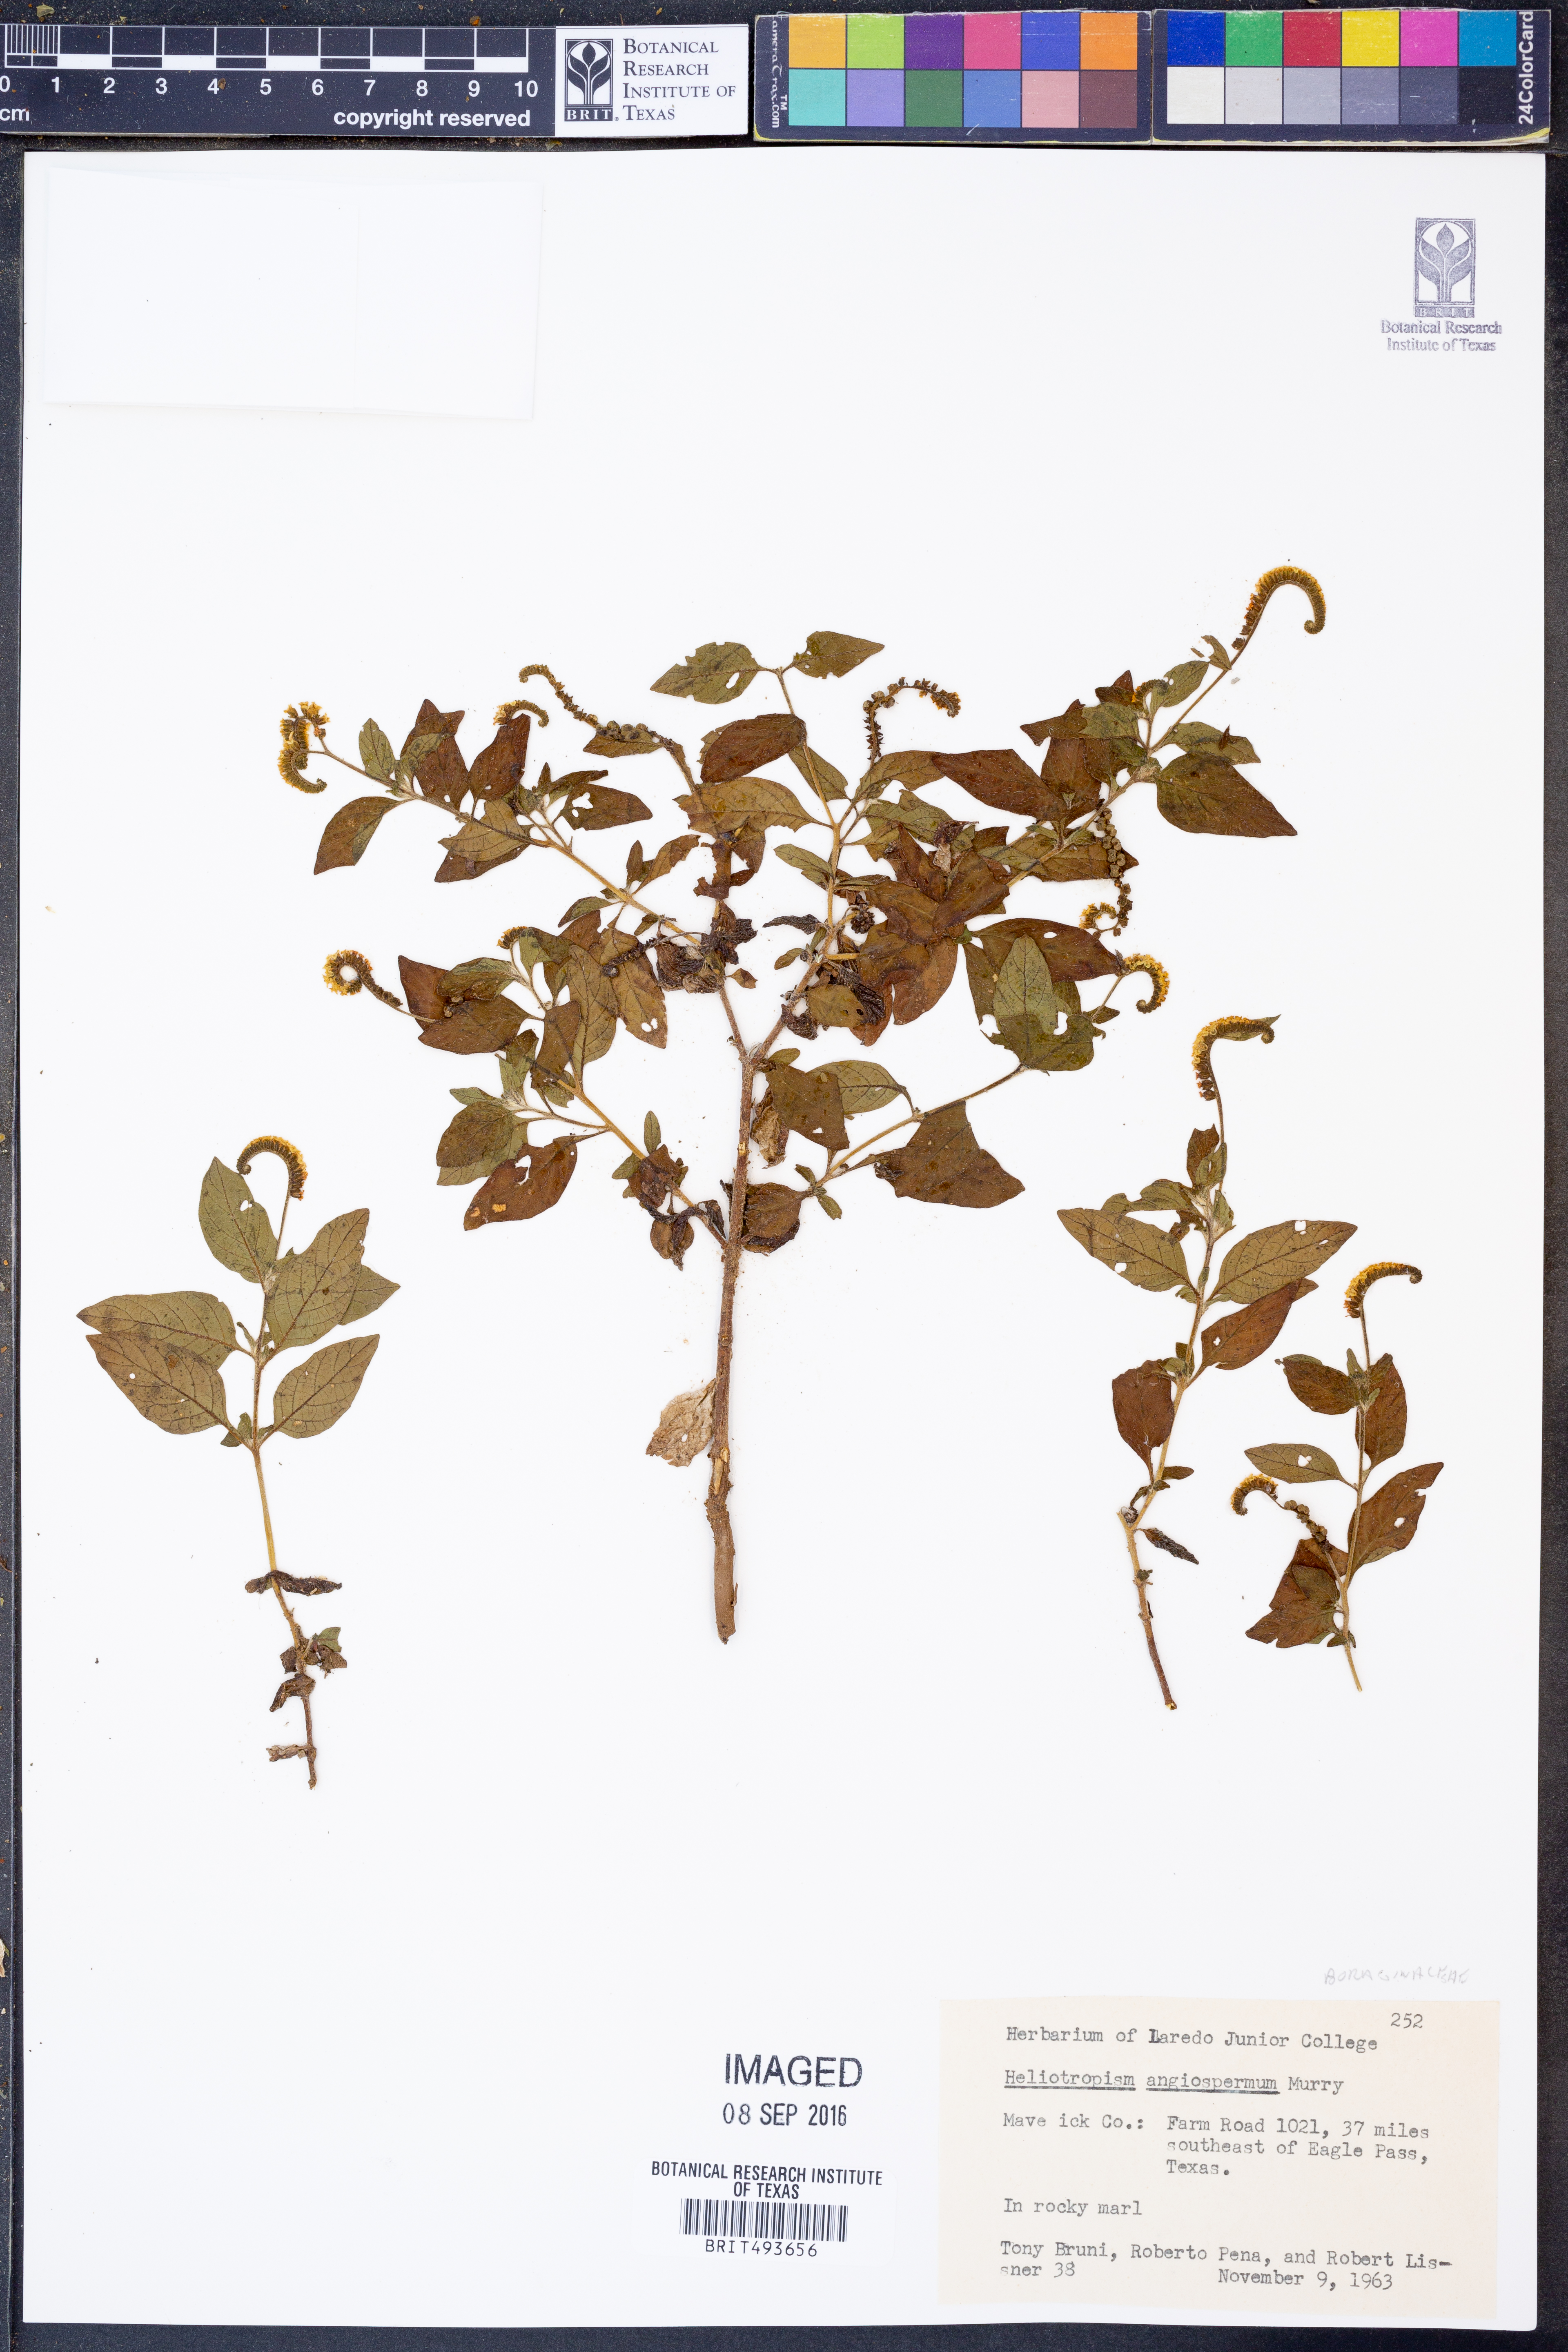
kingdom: Plantae
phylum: Tracheophyta
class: Magnoliopsida
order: Boraginales
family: Heliotropiaceae
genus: Heliotropium
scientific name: Heliotropium angiospermum
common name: Eye bright
